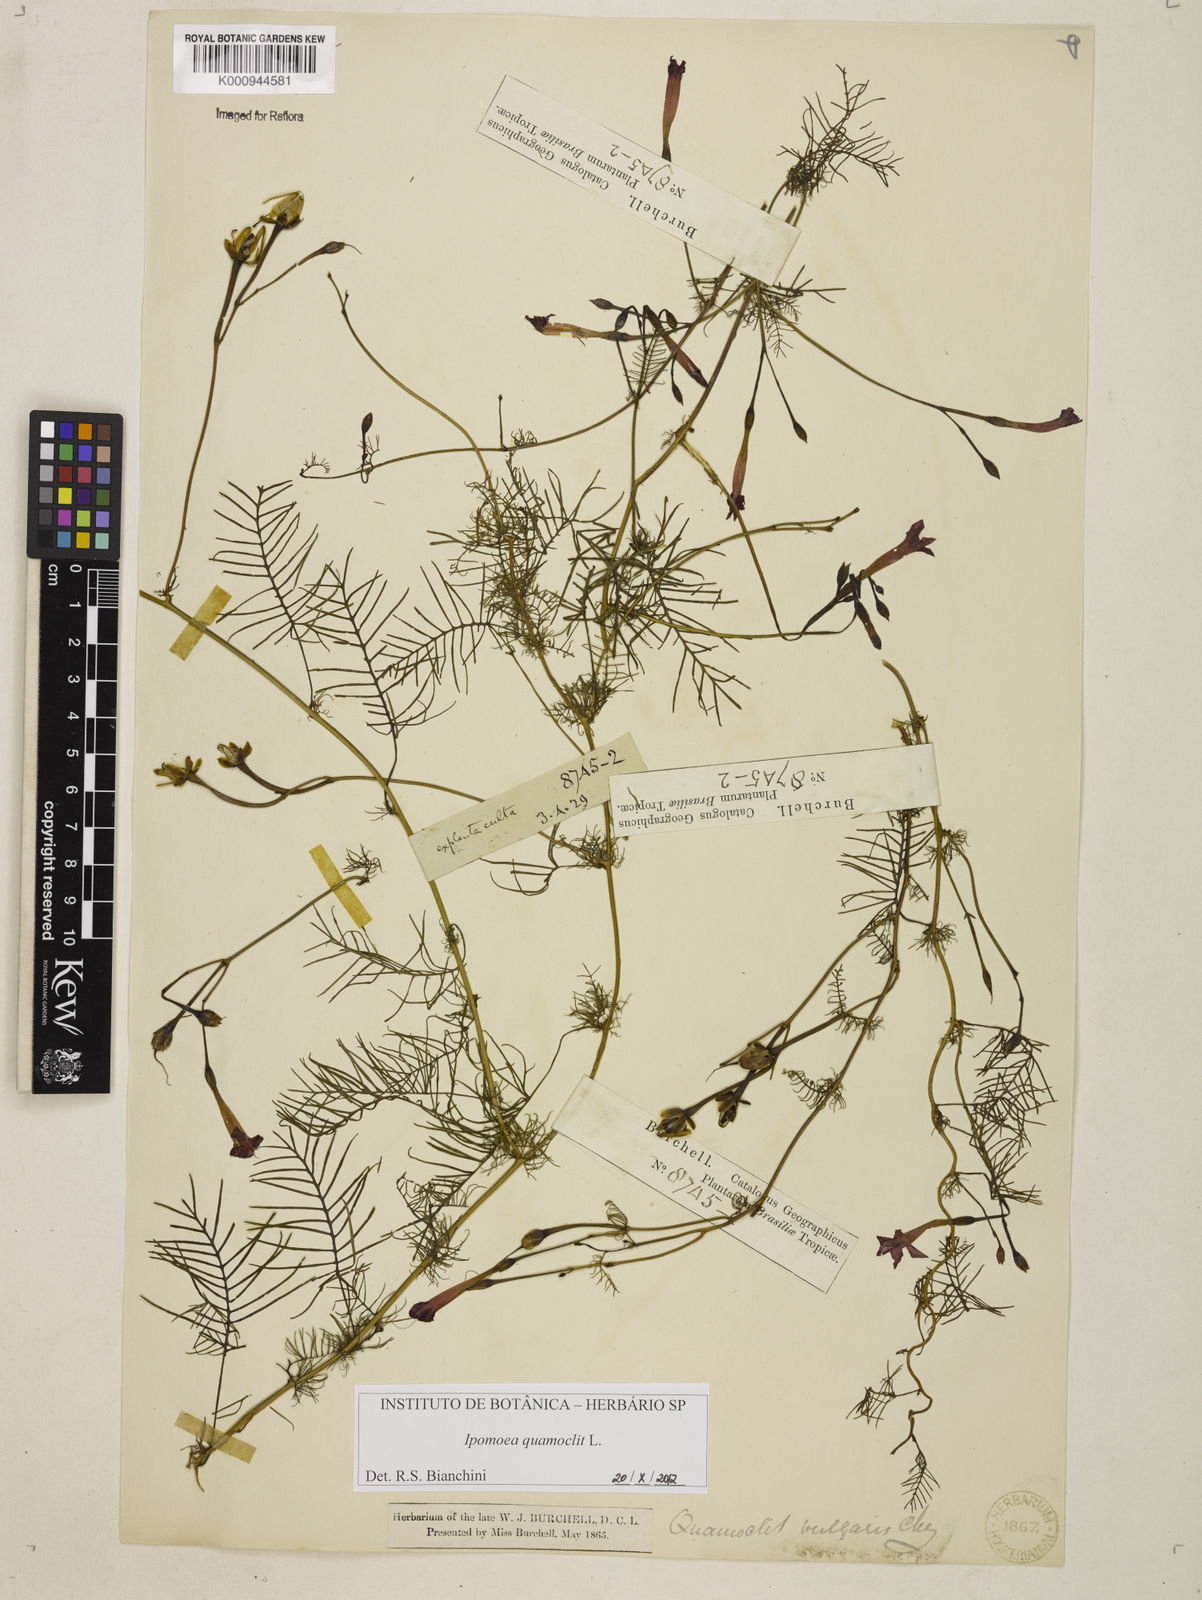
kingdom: Plantae
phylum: Tracheophyta
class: Magnoliopsida
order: Solanales
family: Convolvulaceae
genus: Ipomoea
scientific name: Ipomoea quamoclit
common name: Cypress vine
